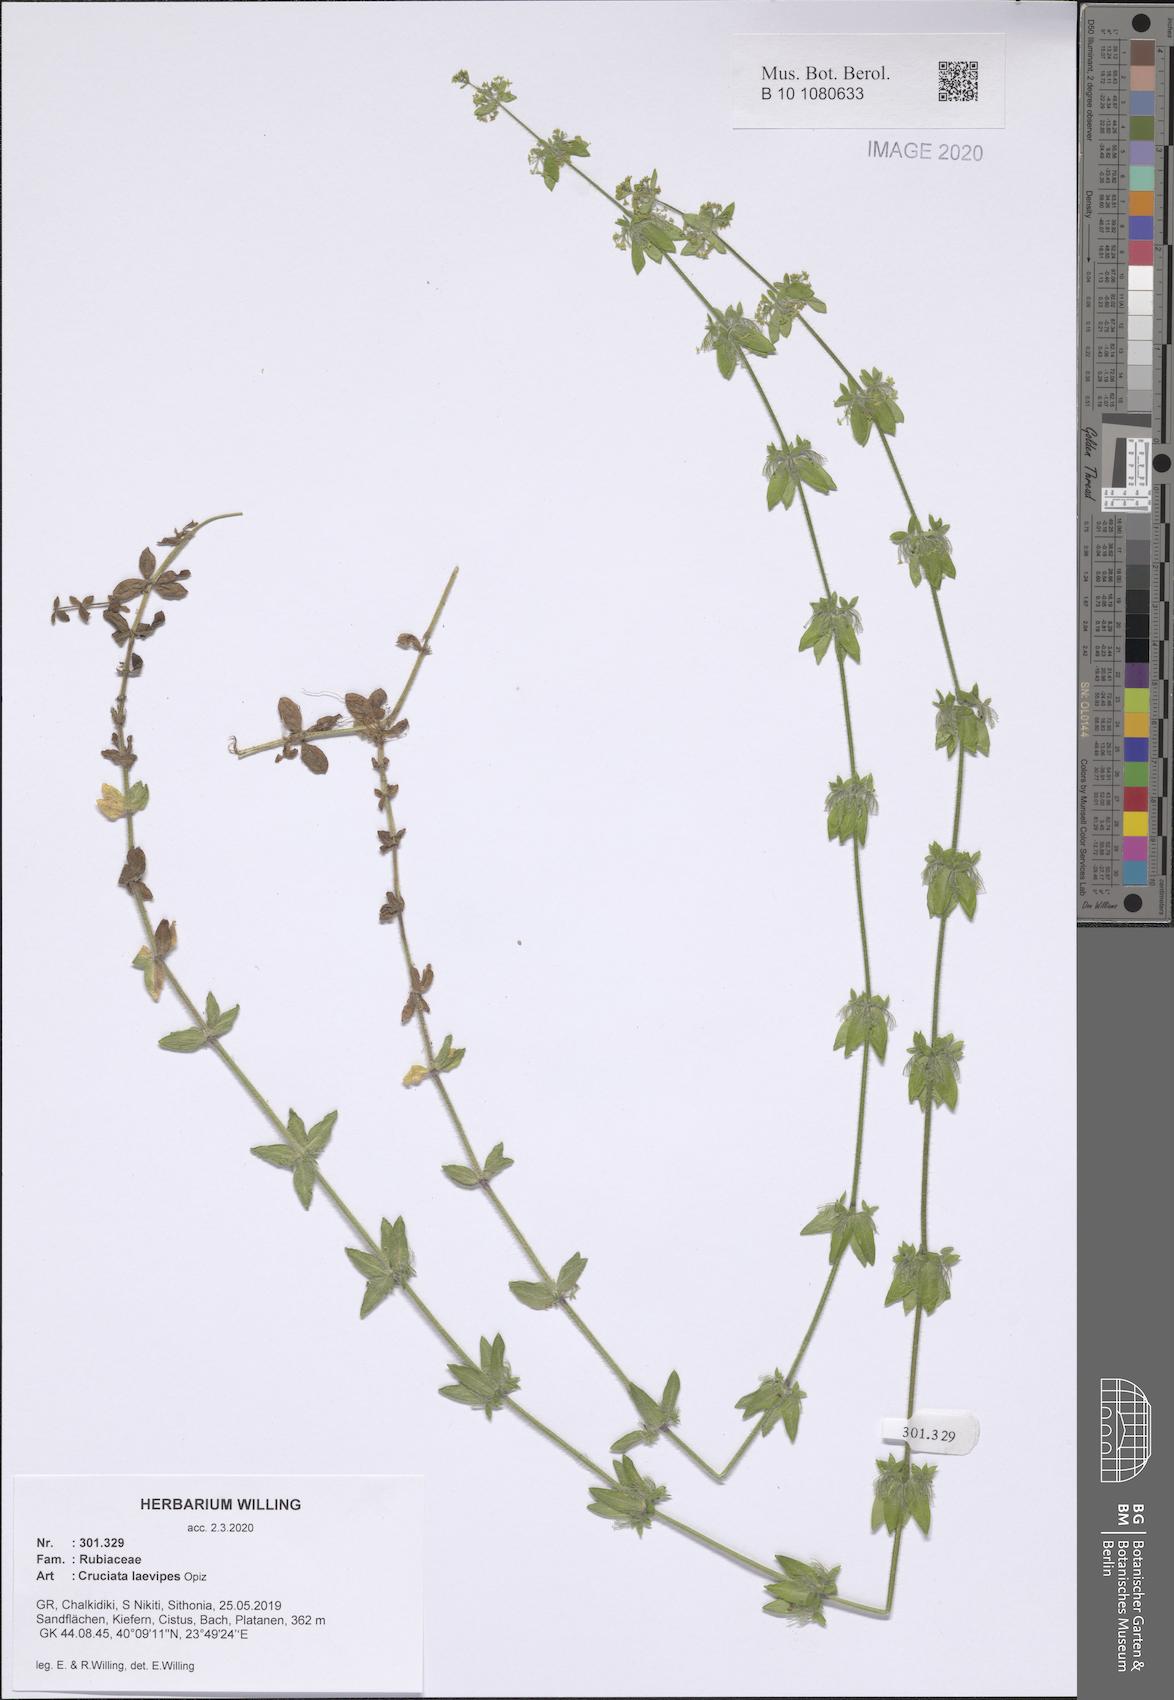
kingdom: Plantae
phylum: Tracheophyta
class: Magnoliopsida
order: Gentianales
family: Rubiaceae
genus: Cruciata
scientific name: Cruciata laevipes
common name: Crosswort
